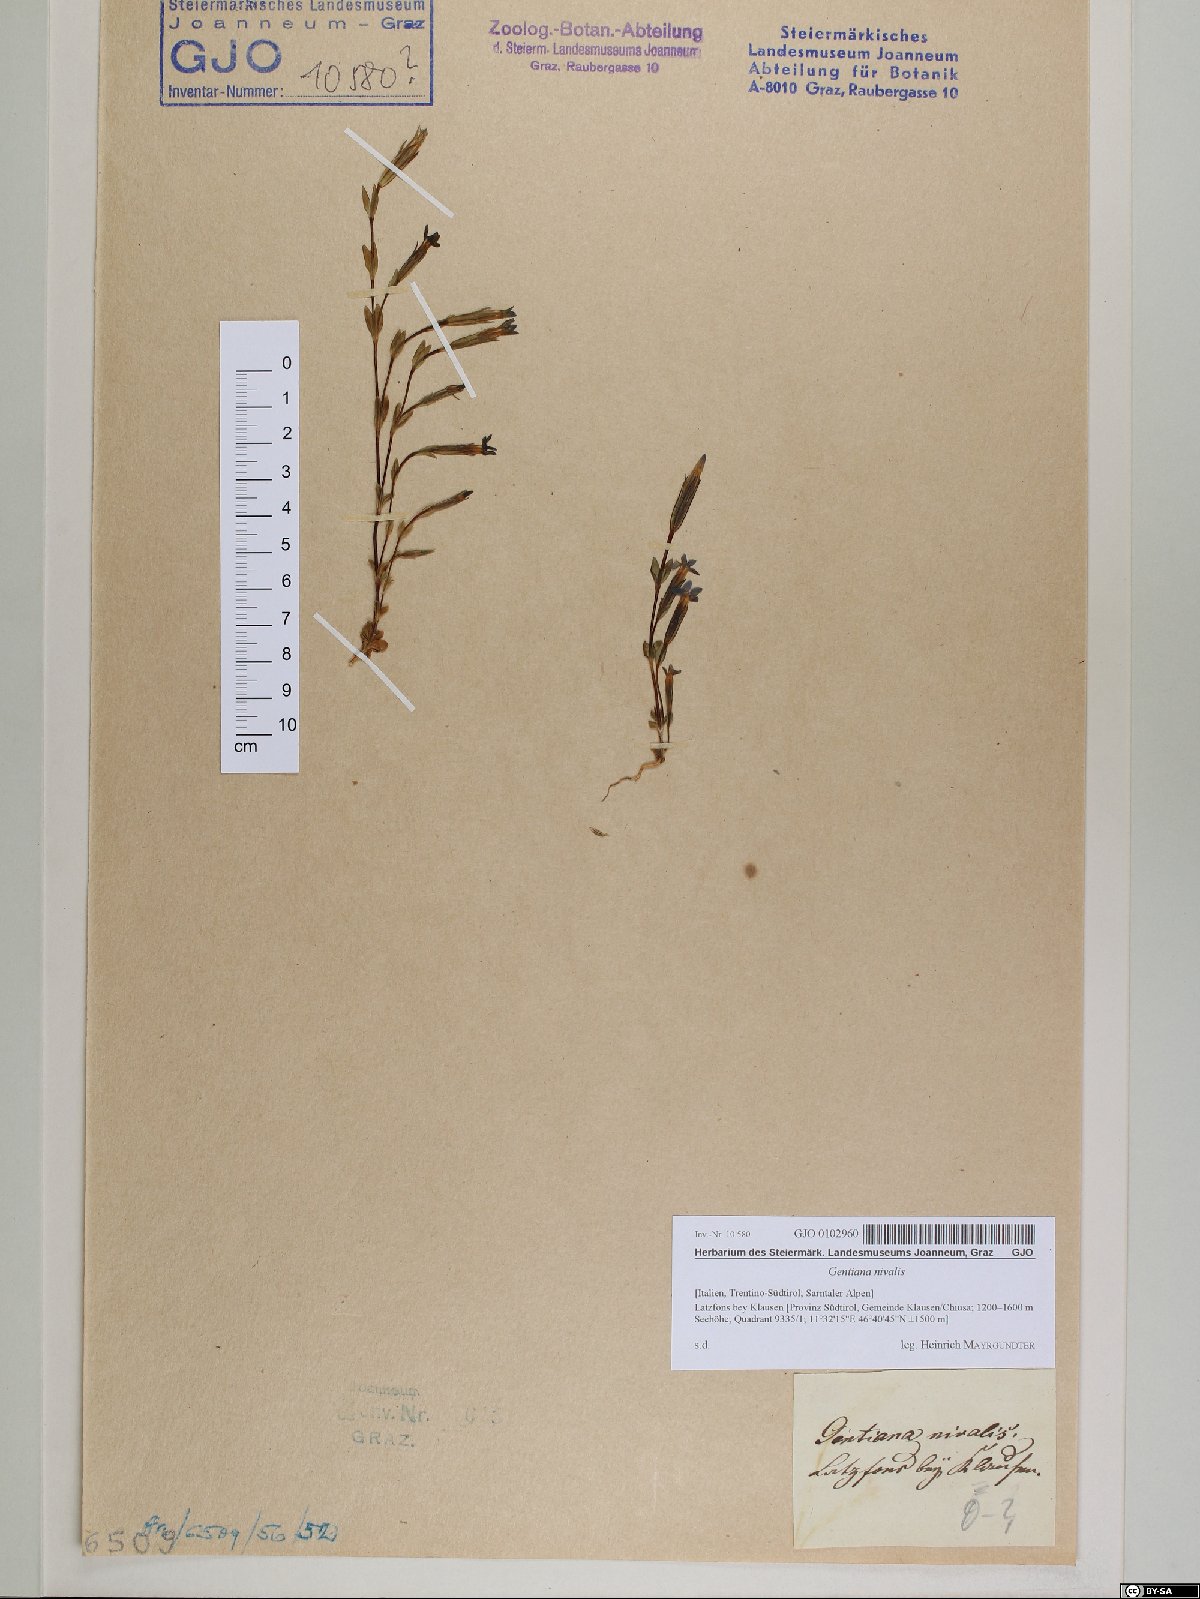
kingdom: Plantae
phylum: Tracheophyta
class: Magnoliopsida
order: Gentianales
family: Gentianaceae
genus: Gentiana
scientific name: Gentiana nivalis
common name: Alpine gentian
